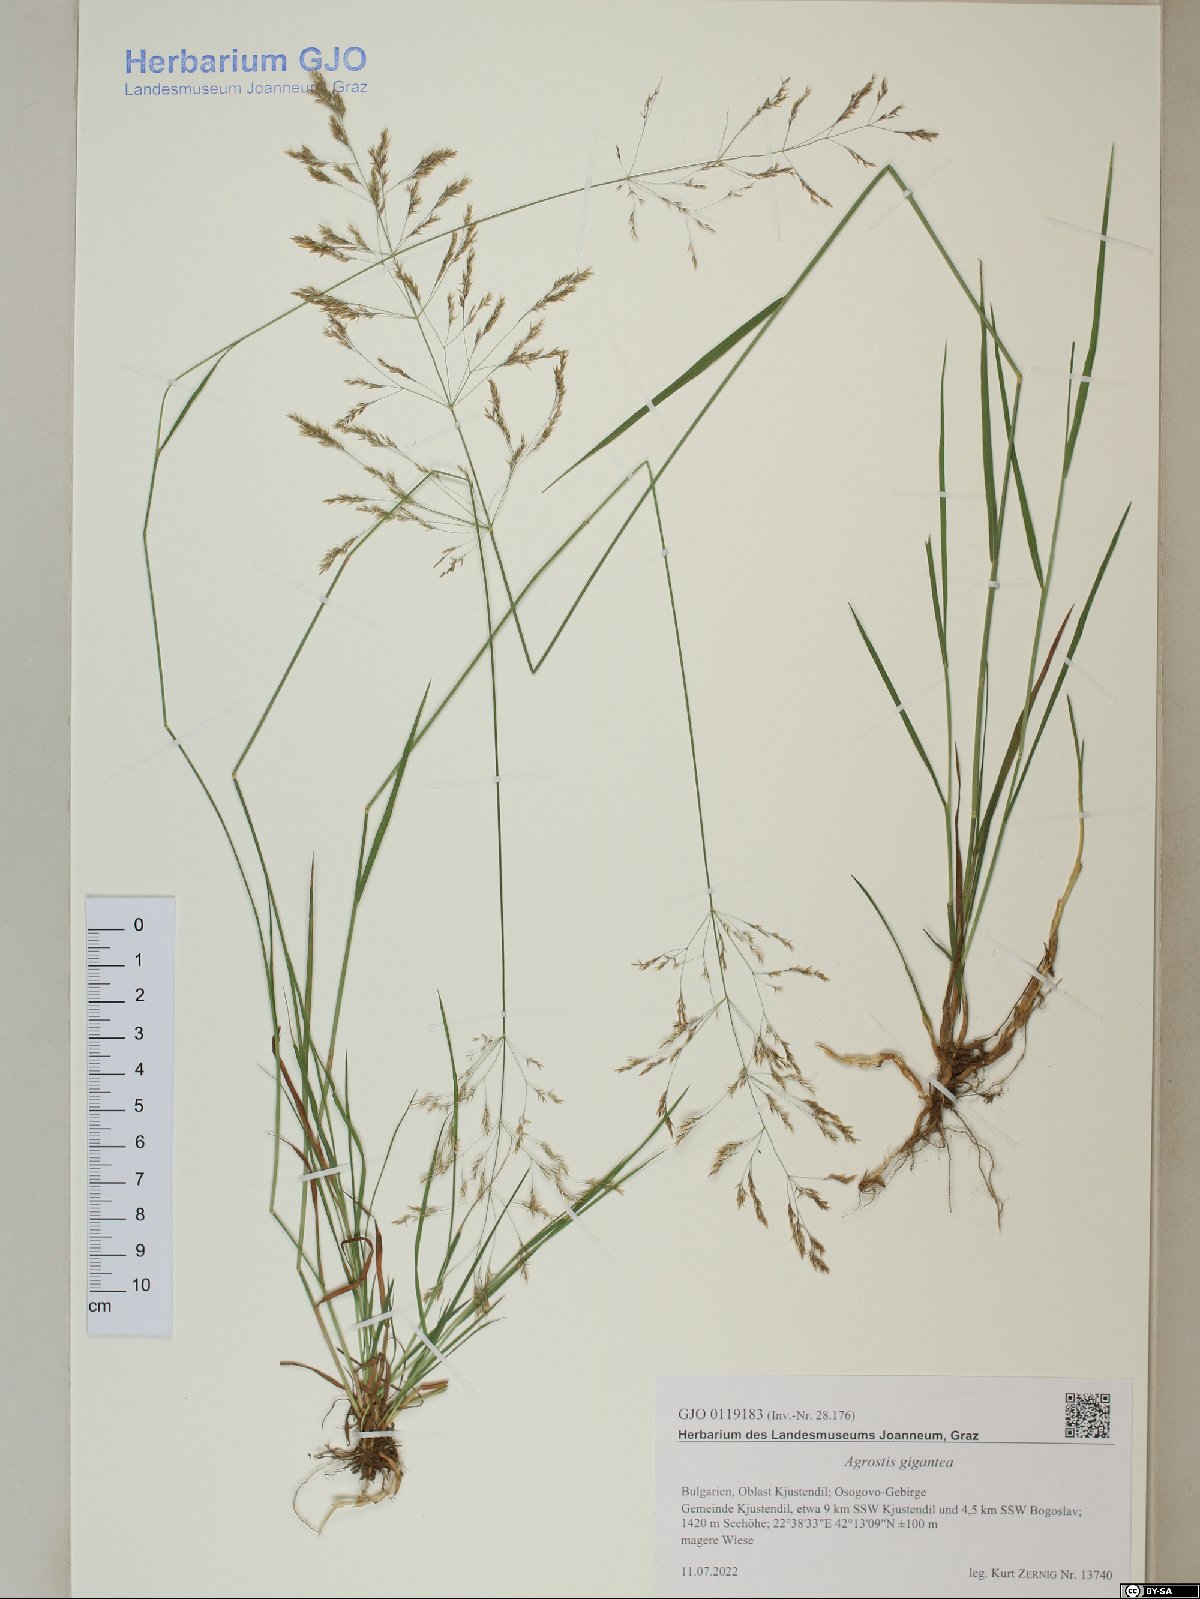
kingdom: Plantae
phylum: Tracheophyta
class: Liliopsida
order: Poales
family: Poaceae
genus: Agrostis
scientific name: Agrostis gigantea
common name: Black bent
